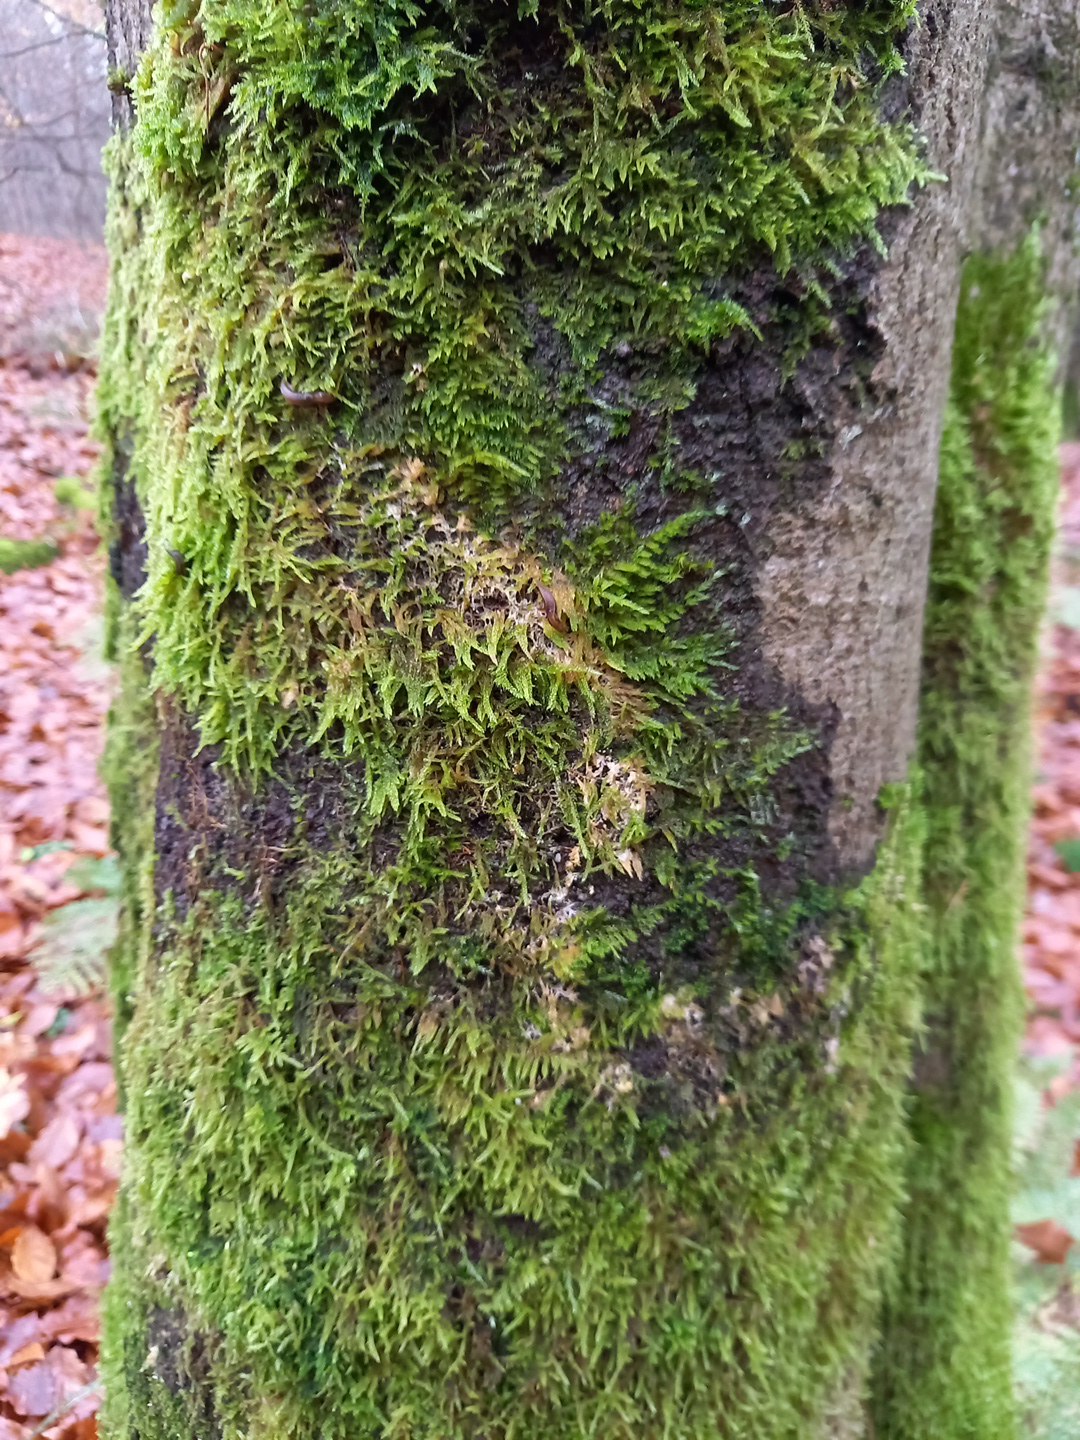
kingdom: Fungi
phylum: Basidiomycota
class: Agaricomycetes
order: Agaricales
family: Chromocyphellaceae
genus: Chromocyphella
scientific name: Chromocyphella muscicola
